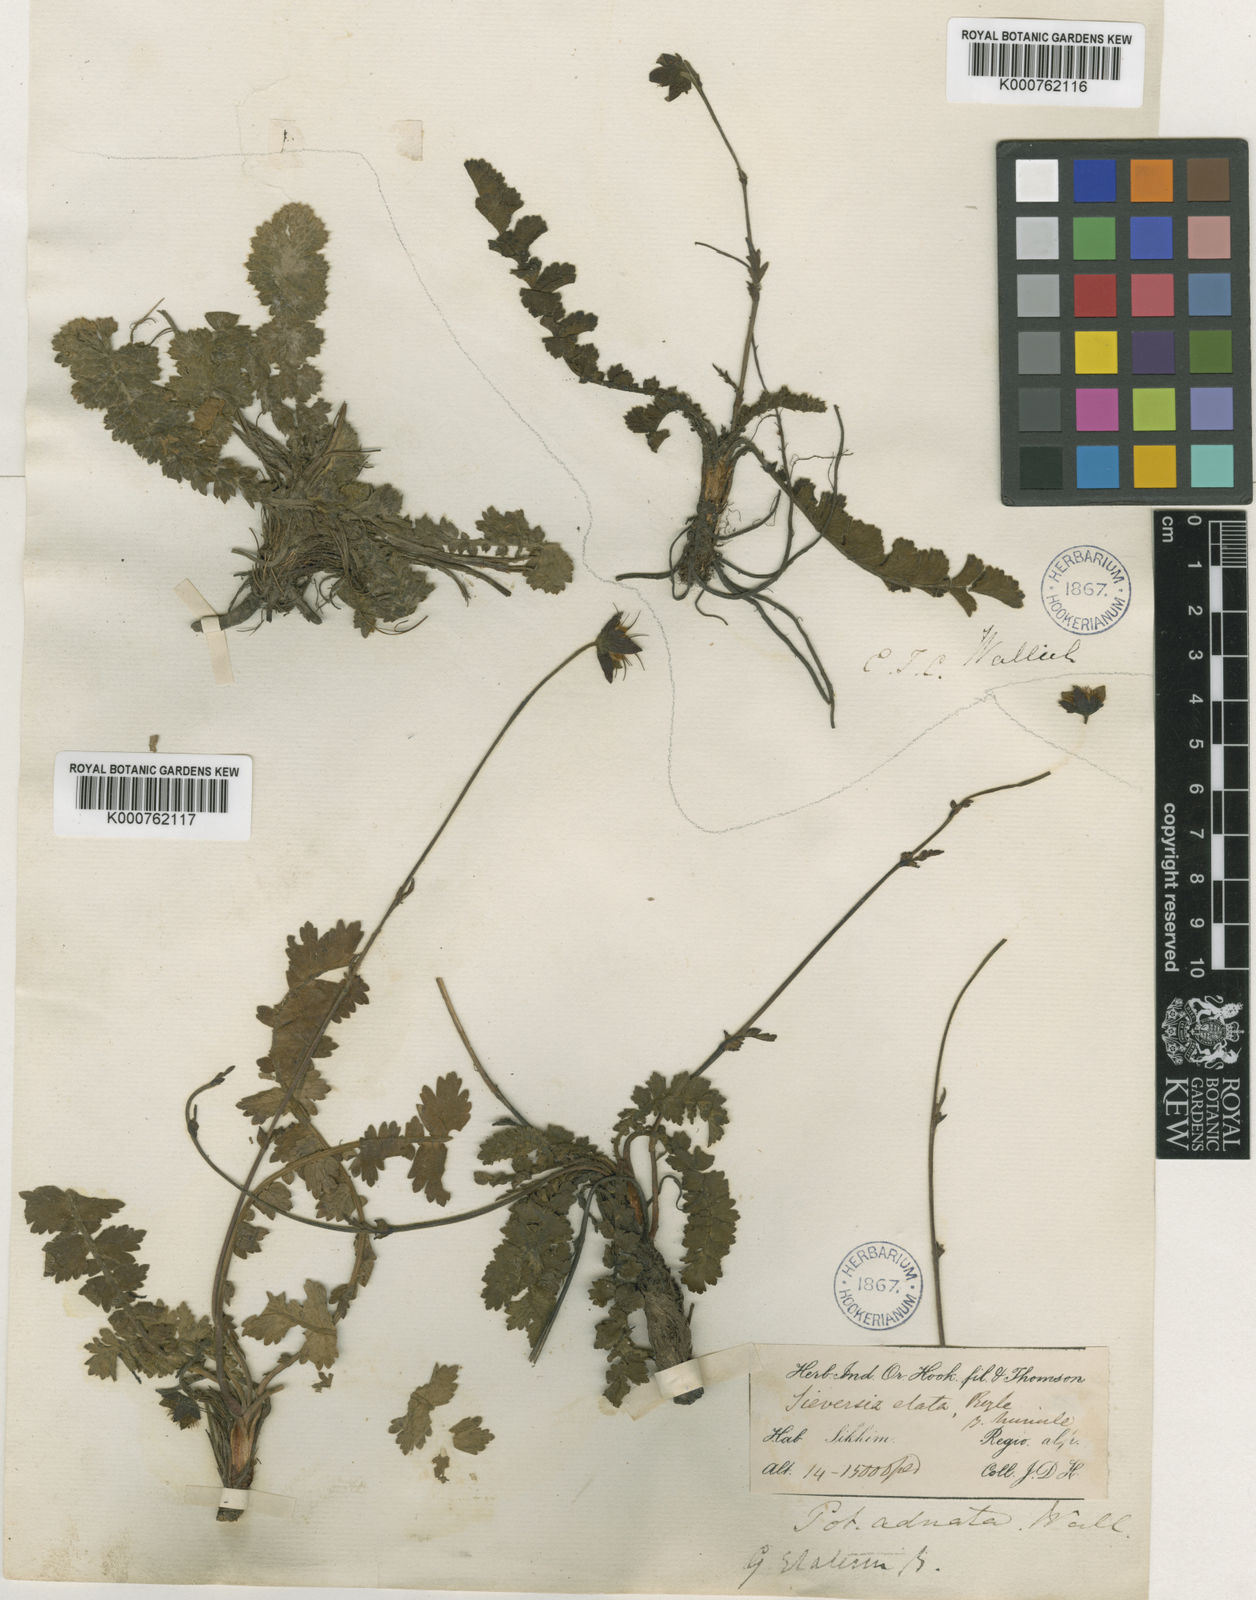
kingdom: Plantae
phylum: Tracheophyta
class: Magnoliopsida
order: Rosales
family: Rosaceae
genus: Geum
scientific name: Geum elatum
